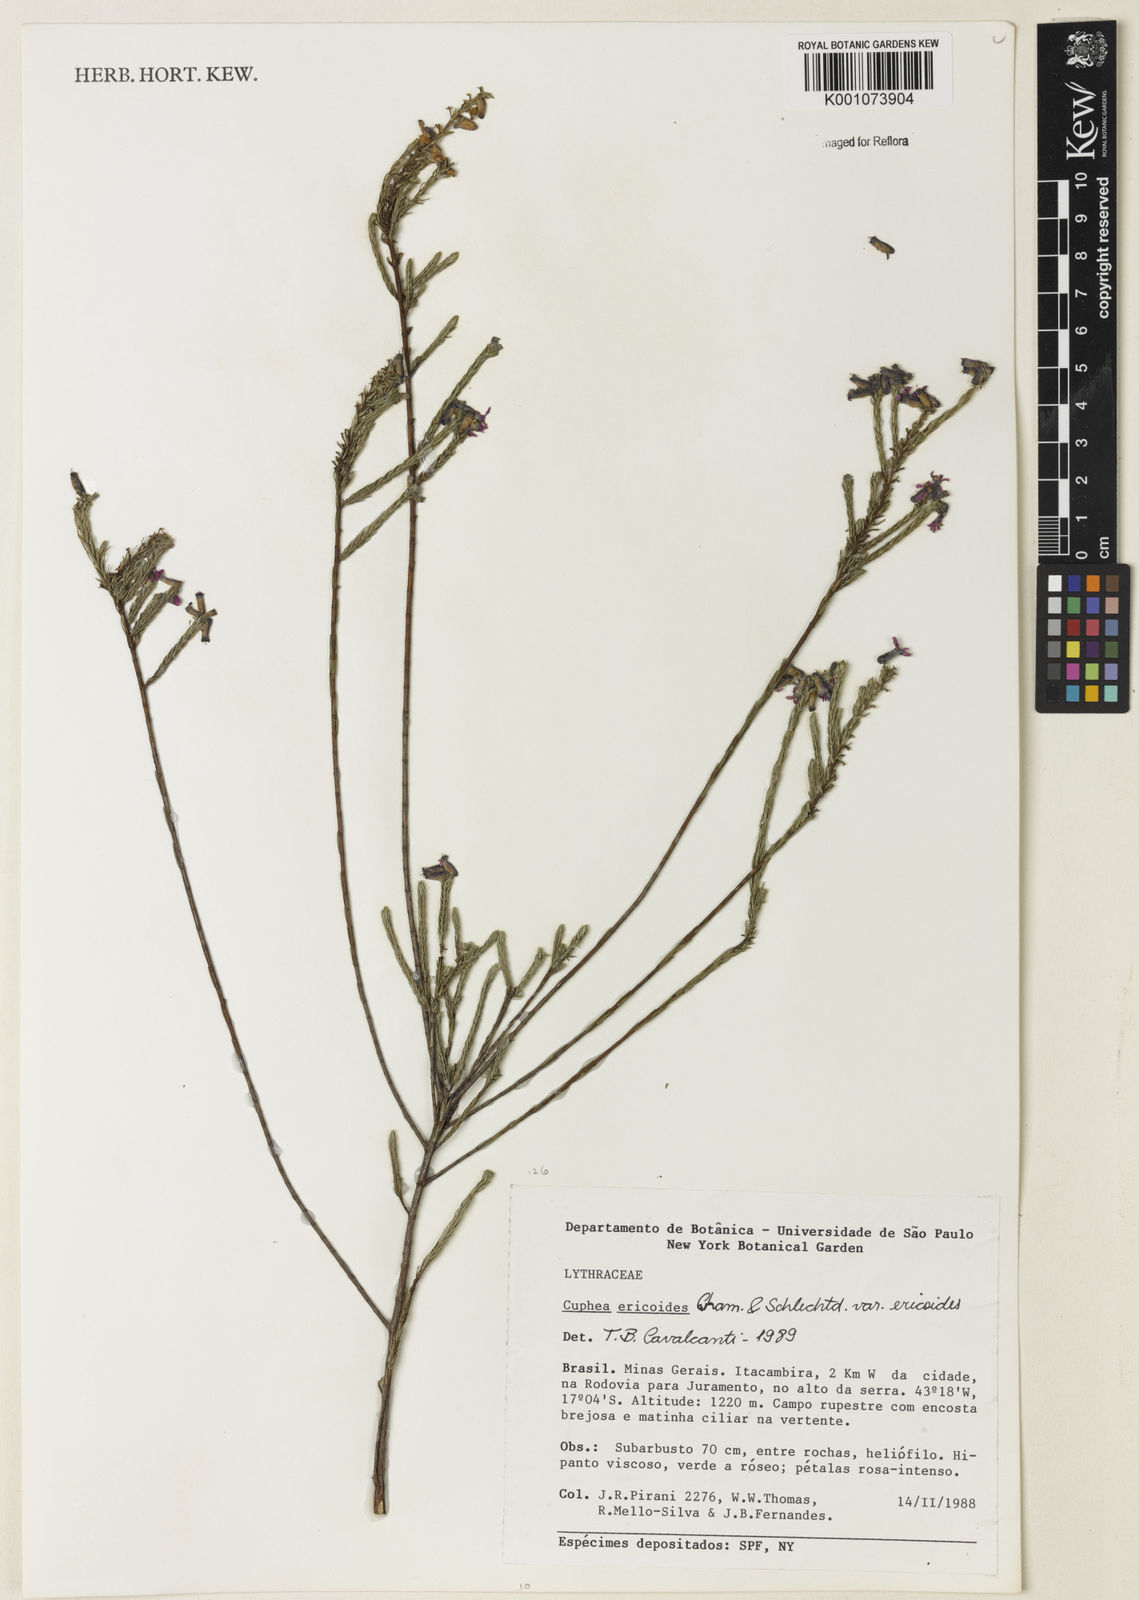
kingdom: Plantae
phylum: Tracheophyta
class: Magnoliopsida
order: Myrtales
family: Lythraceae
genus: Cuphea
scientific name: Cuphea ericoides
